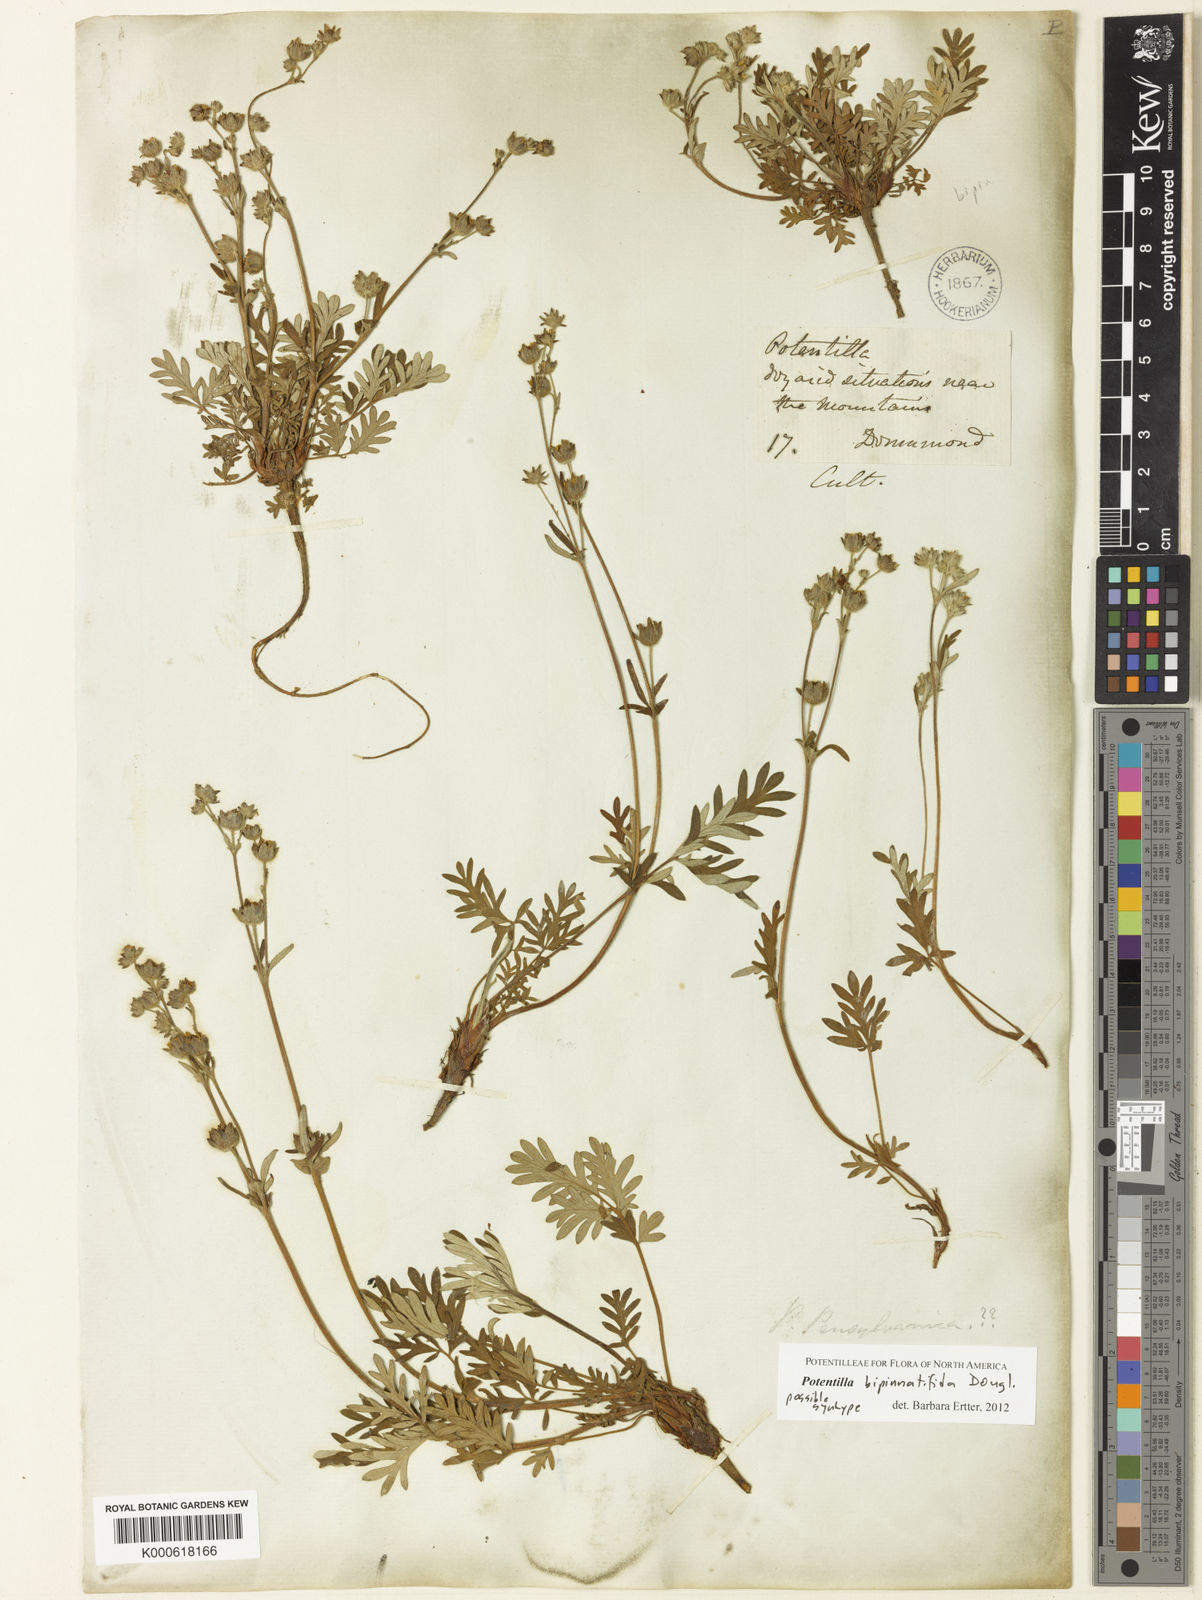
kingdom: Plantae
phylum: Tracheophyta
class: Magnoliopsida
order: Rosales
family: Rosaceae
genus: Potentilla
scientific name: Potentilla
